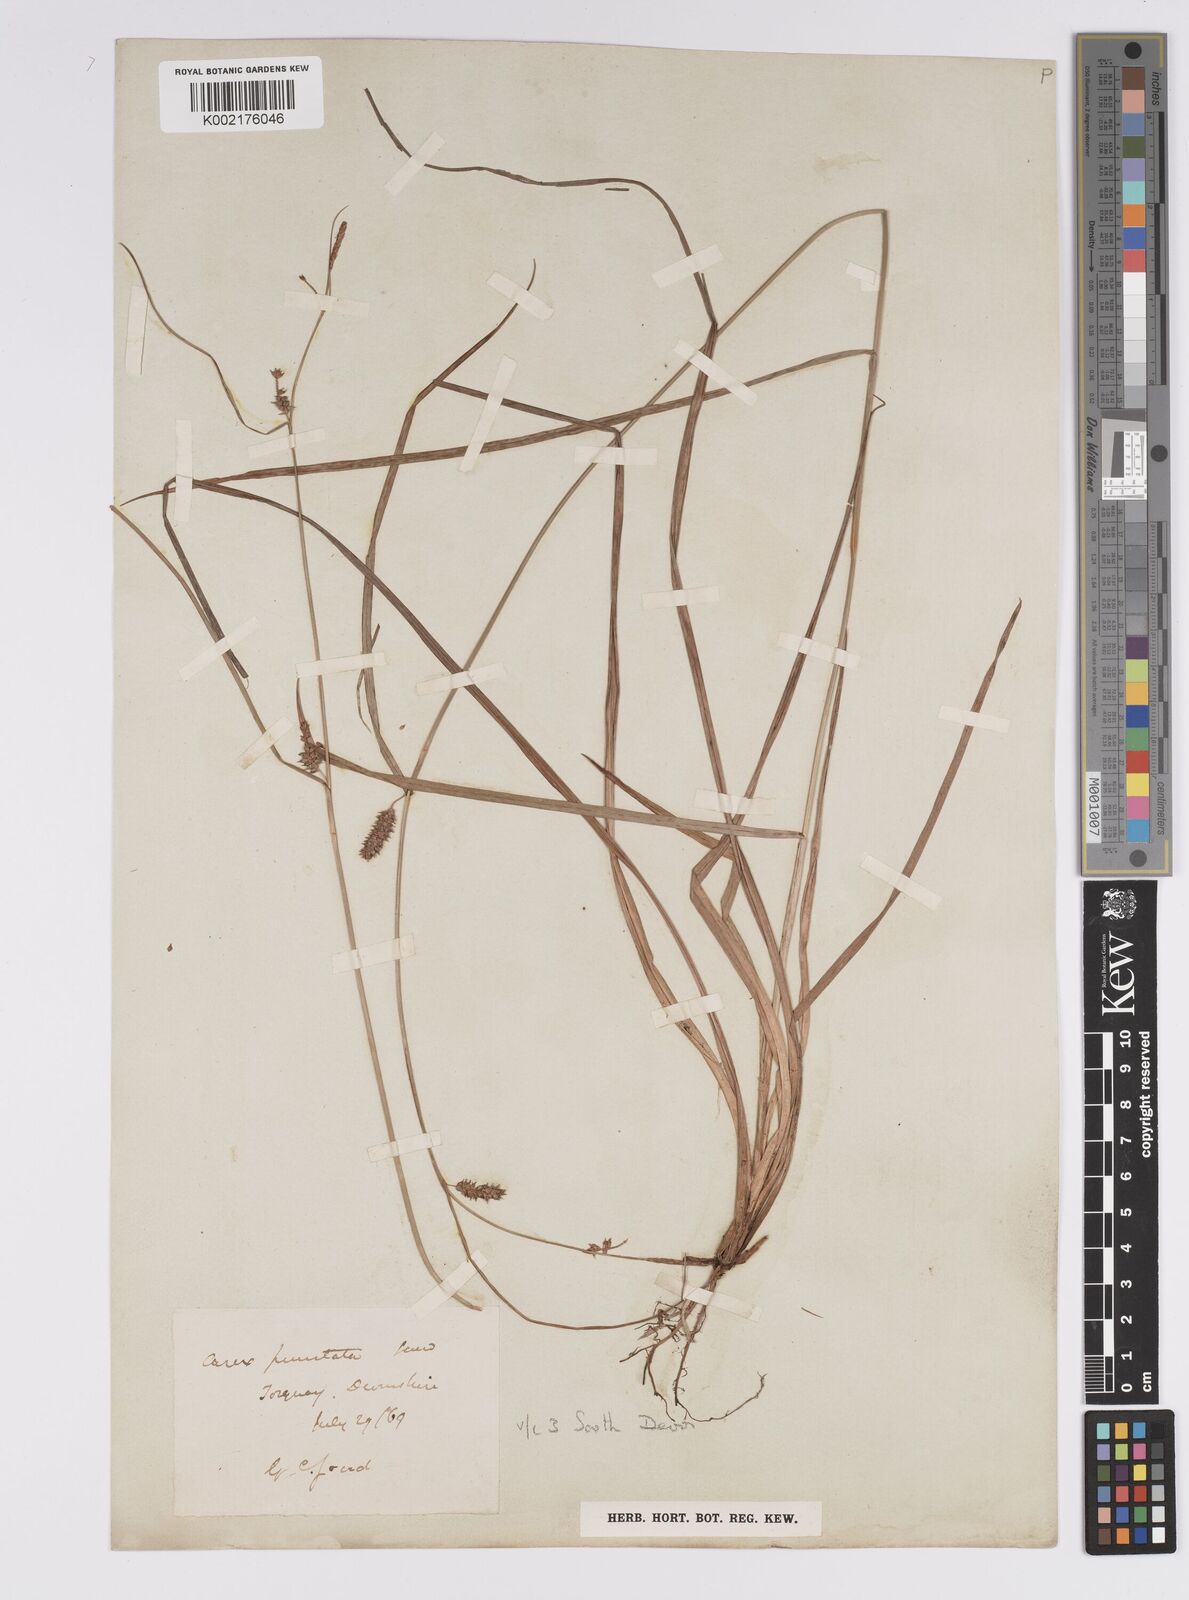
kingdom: Plantae
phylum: Tracheophyta
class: Liliopsida
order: Poales
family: Cyperaceae
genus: Carex
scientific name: Carex punctata
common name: Dotted sedge
